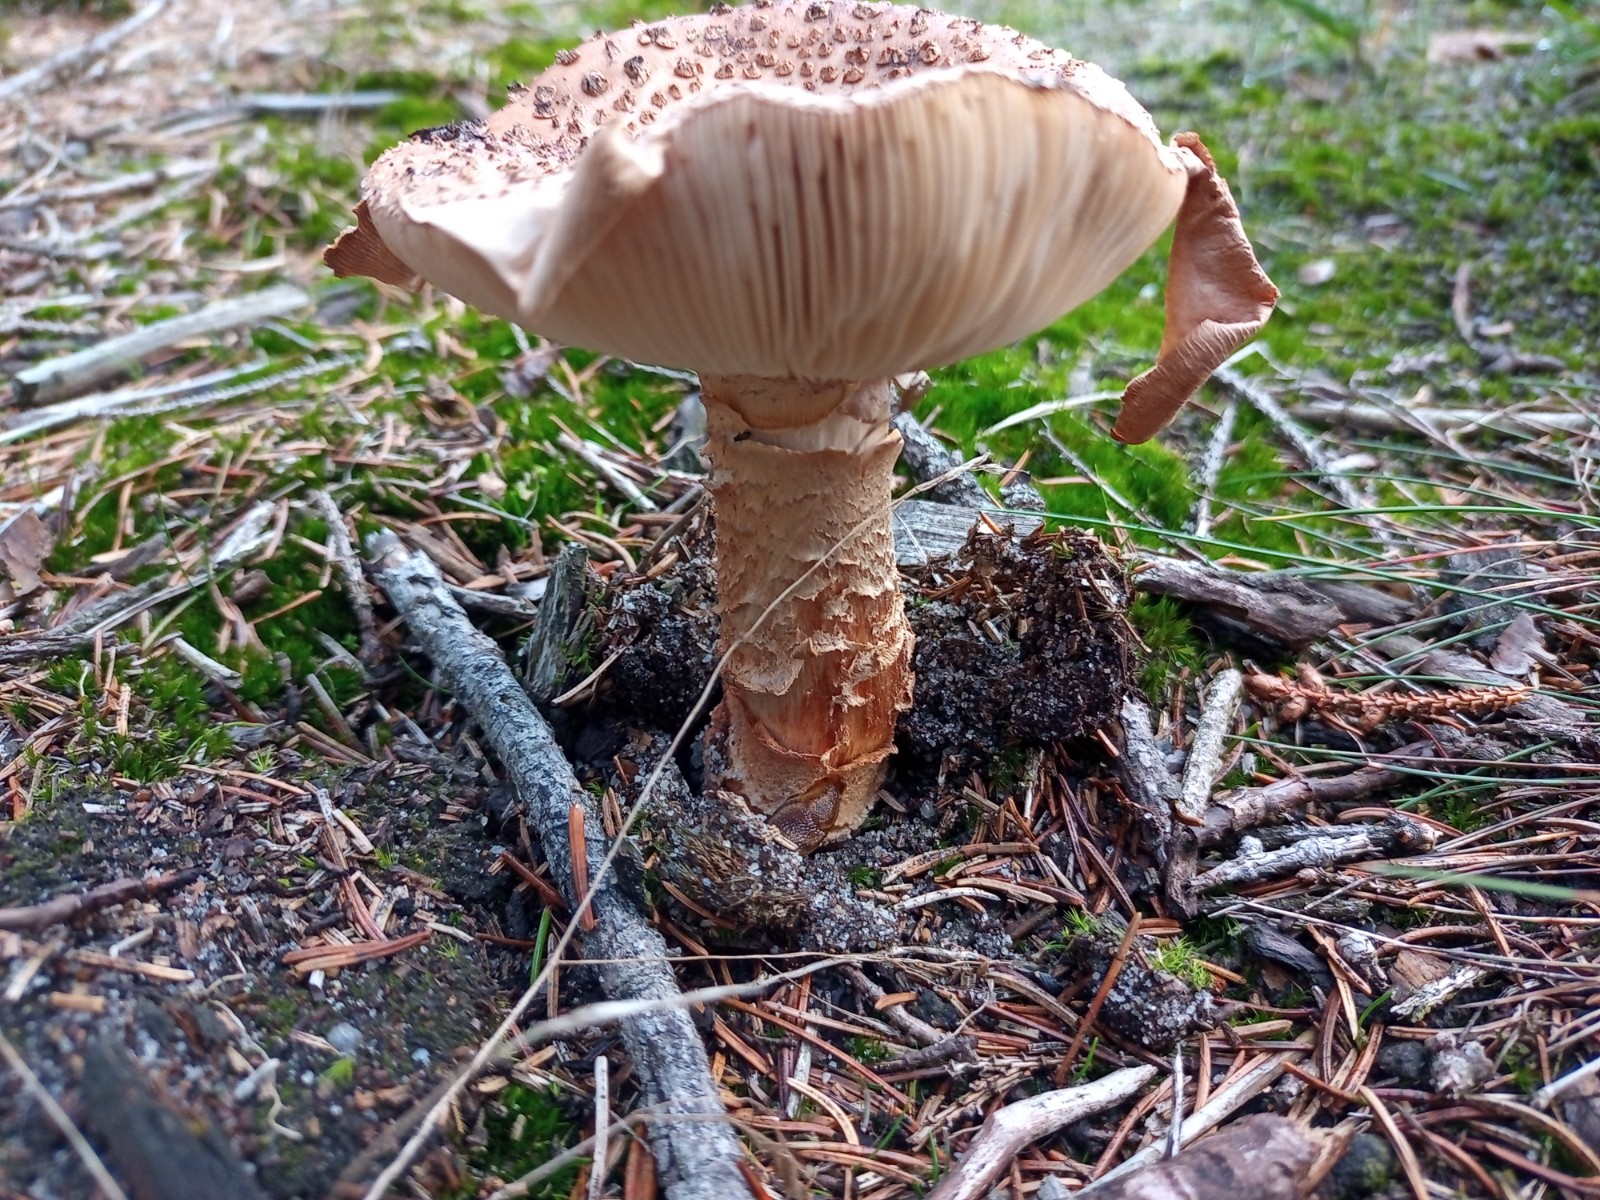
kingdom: Fungi
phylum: Basidiomycota
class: Agaricomycetes
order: Agaricales
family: Amanitaceae
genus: Amanita
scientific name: Amanita rubescens
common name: rødmende fluesvamp
